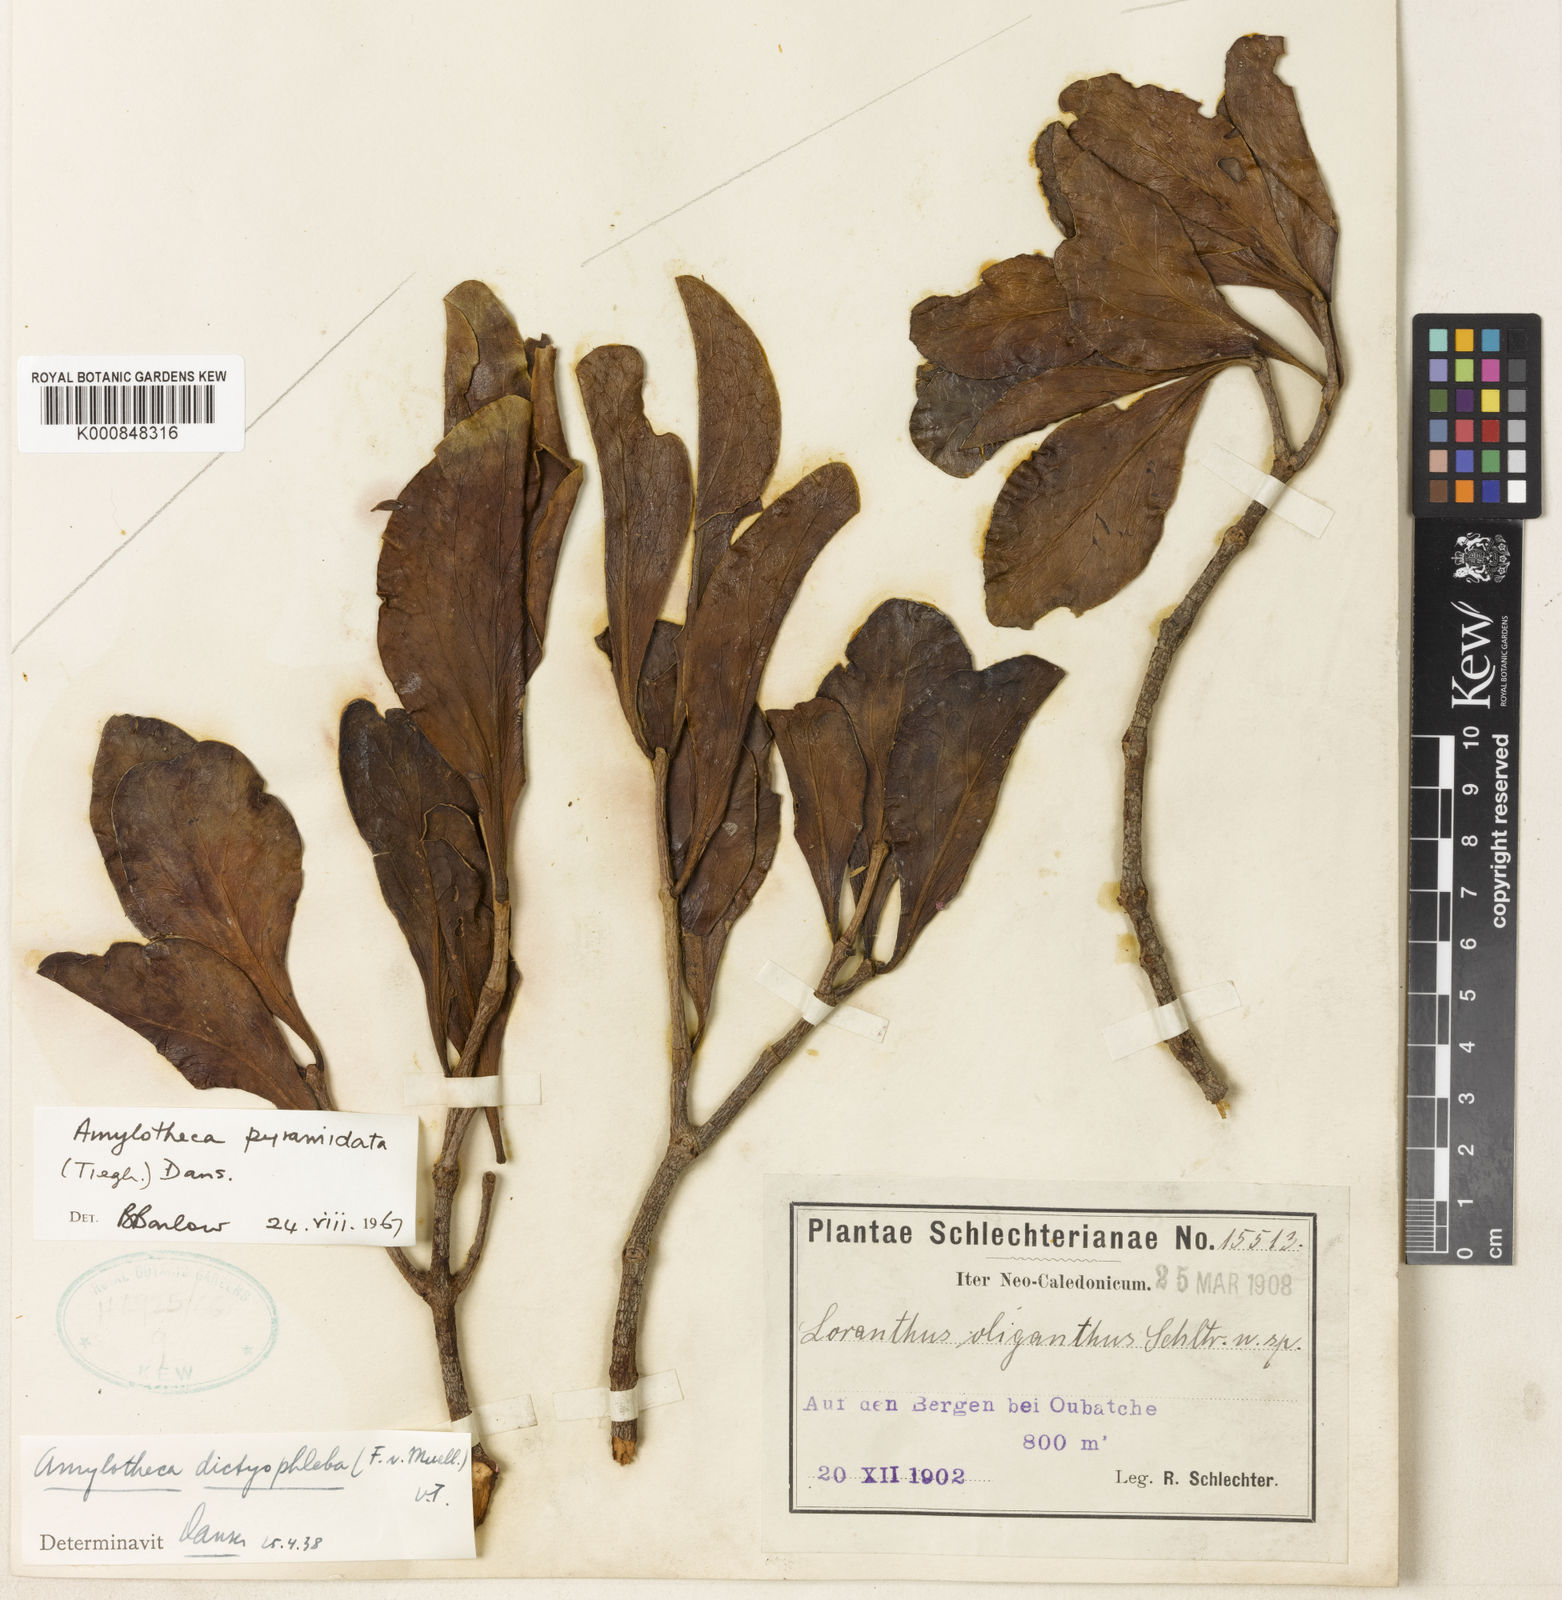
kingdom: Plantae
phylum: Tracheophyta
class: Magnoliopsida
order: Santalales
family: Loranthaceae
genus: Amylotheca
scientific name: Amylotheca dictyophleba
